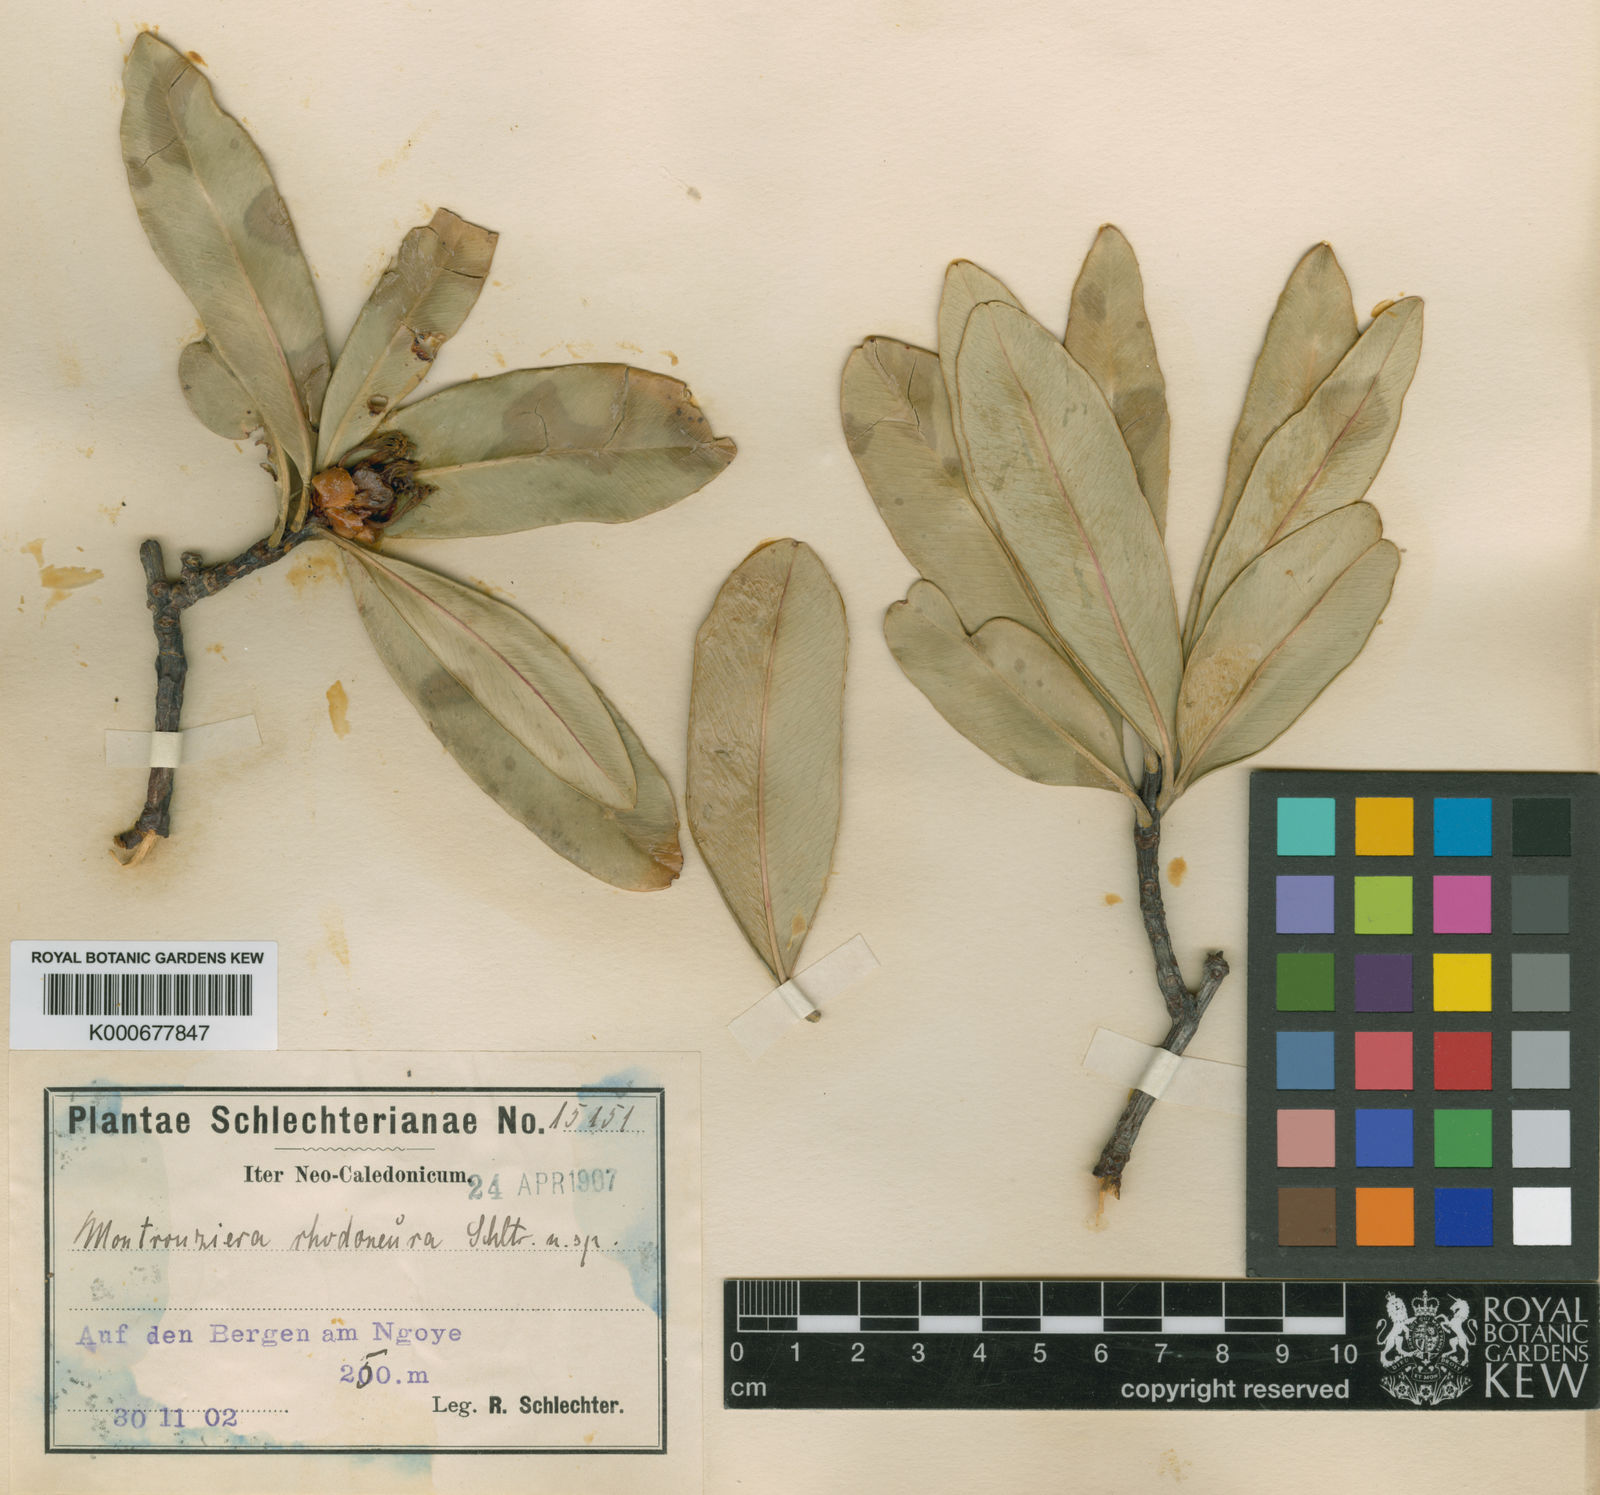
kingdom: Plantae
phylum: Tracheophyta
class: Magnoliopsida
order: Malpighiales
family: Clusiaceae
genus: Montrouziera
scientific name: Montrouziera rhodoneura
